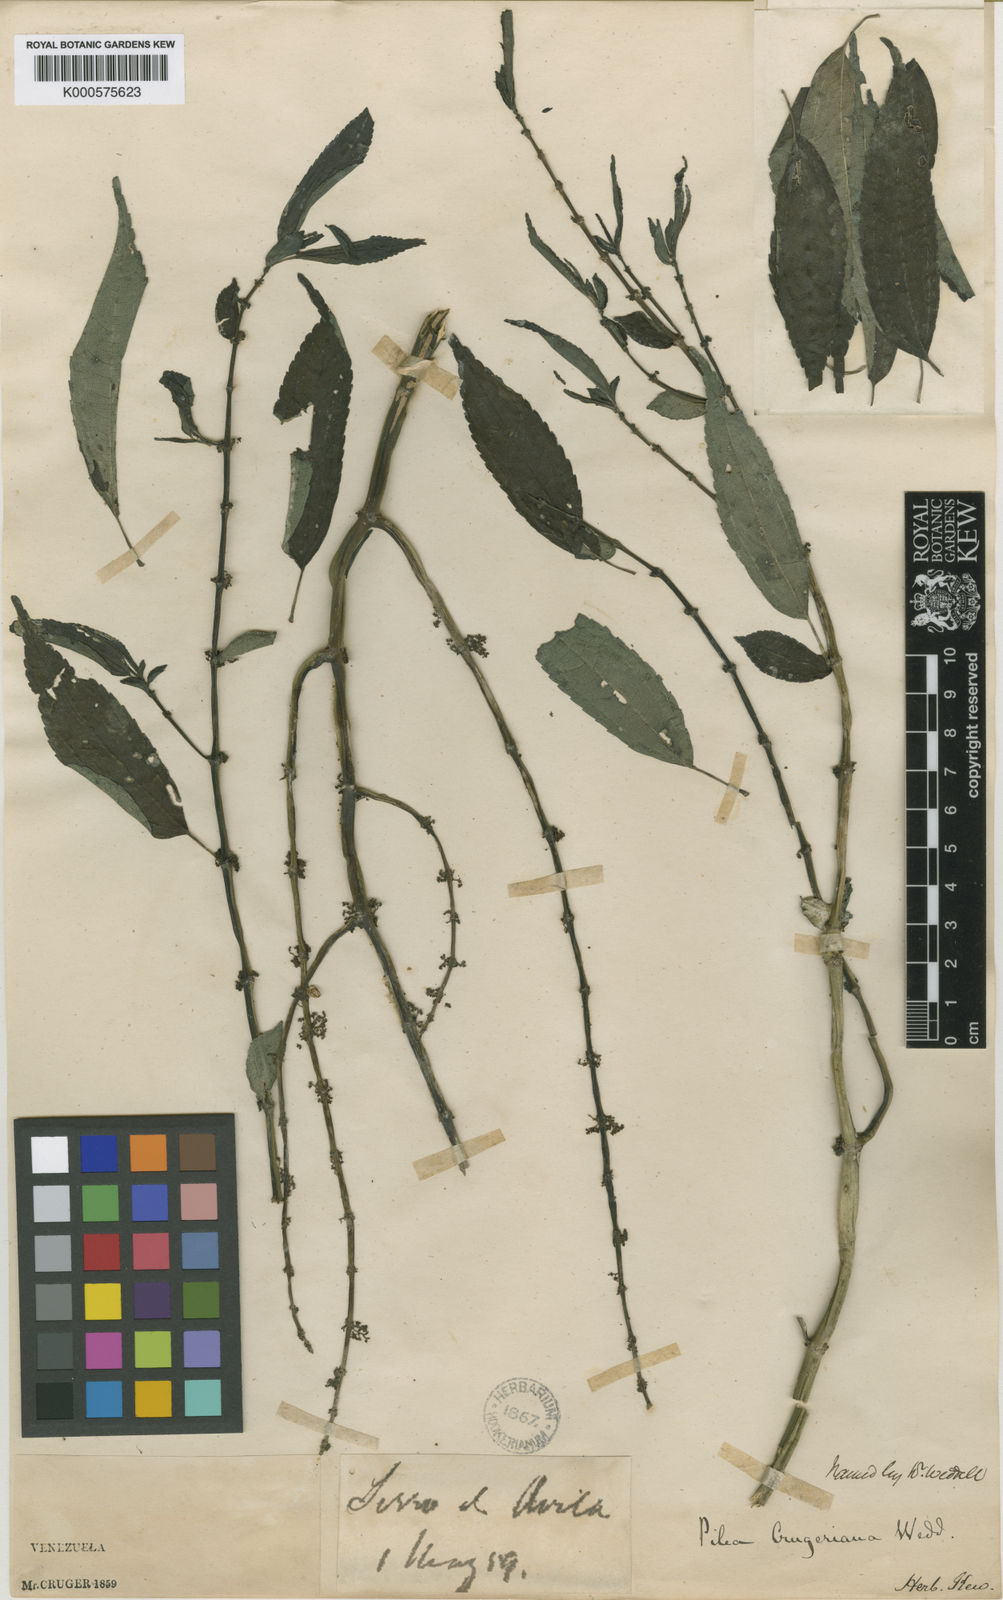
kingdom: Plantae
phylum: Tracheophyta
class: Magnoliopsida
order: Rosales
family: Urticaceae
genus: Pilea
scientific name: Pilea cruegeriana
